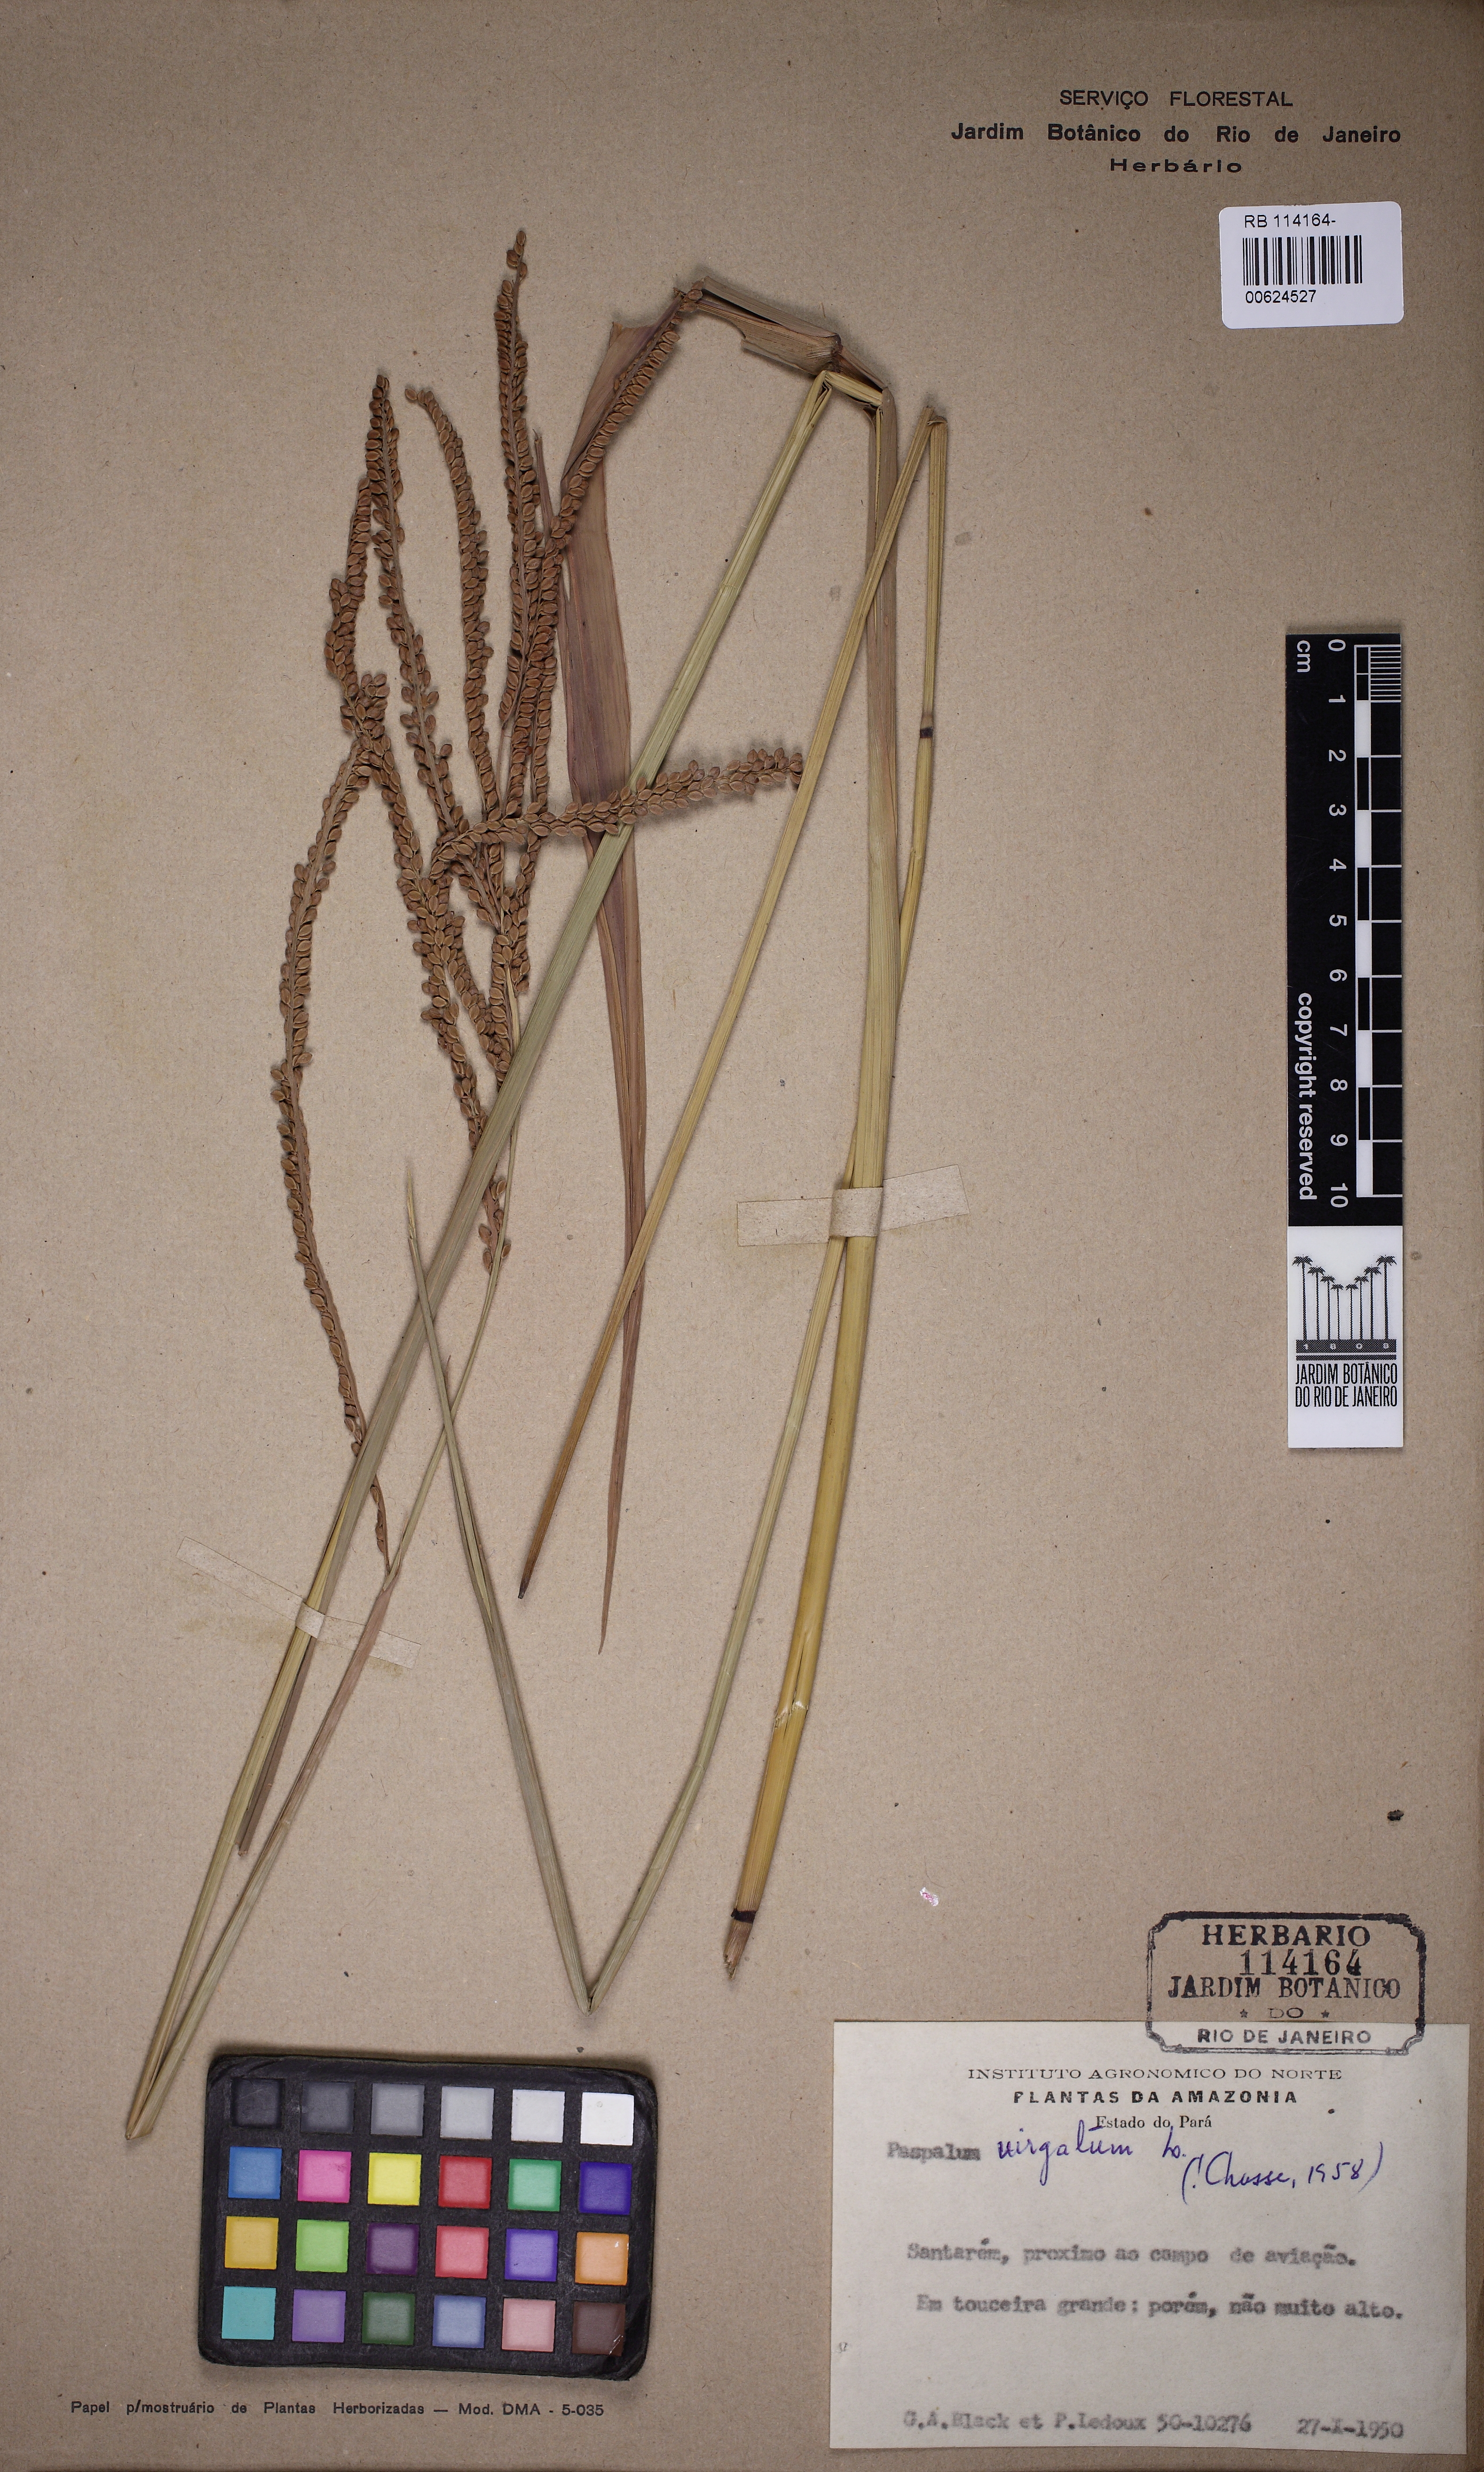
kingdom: Plantae
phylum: Tracheophyta
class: Liliopsida
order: Poales
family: Poaceae
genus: Paspalum
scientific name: Paspalum virgatum
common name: Talquezal
